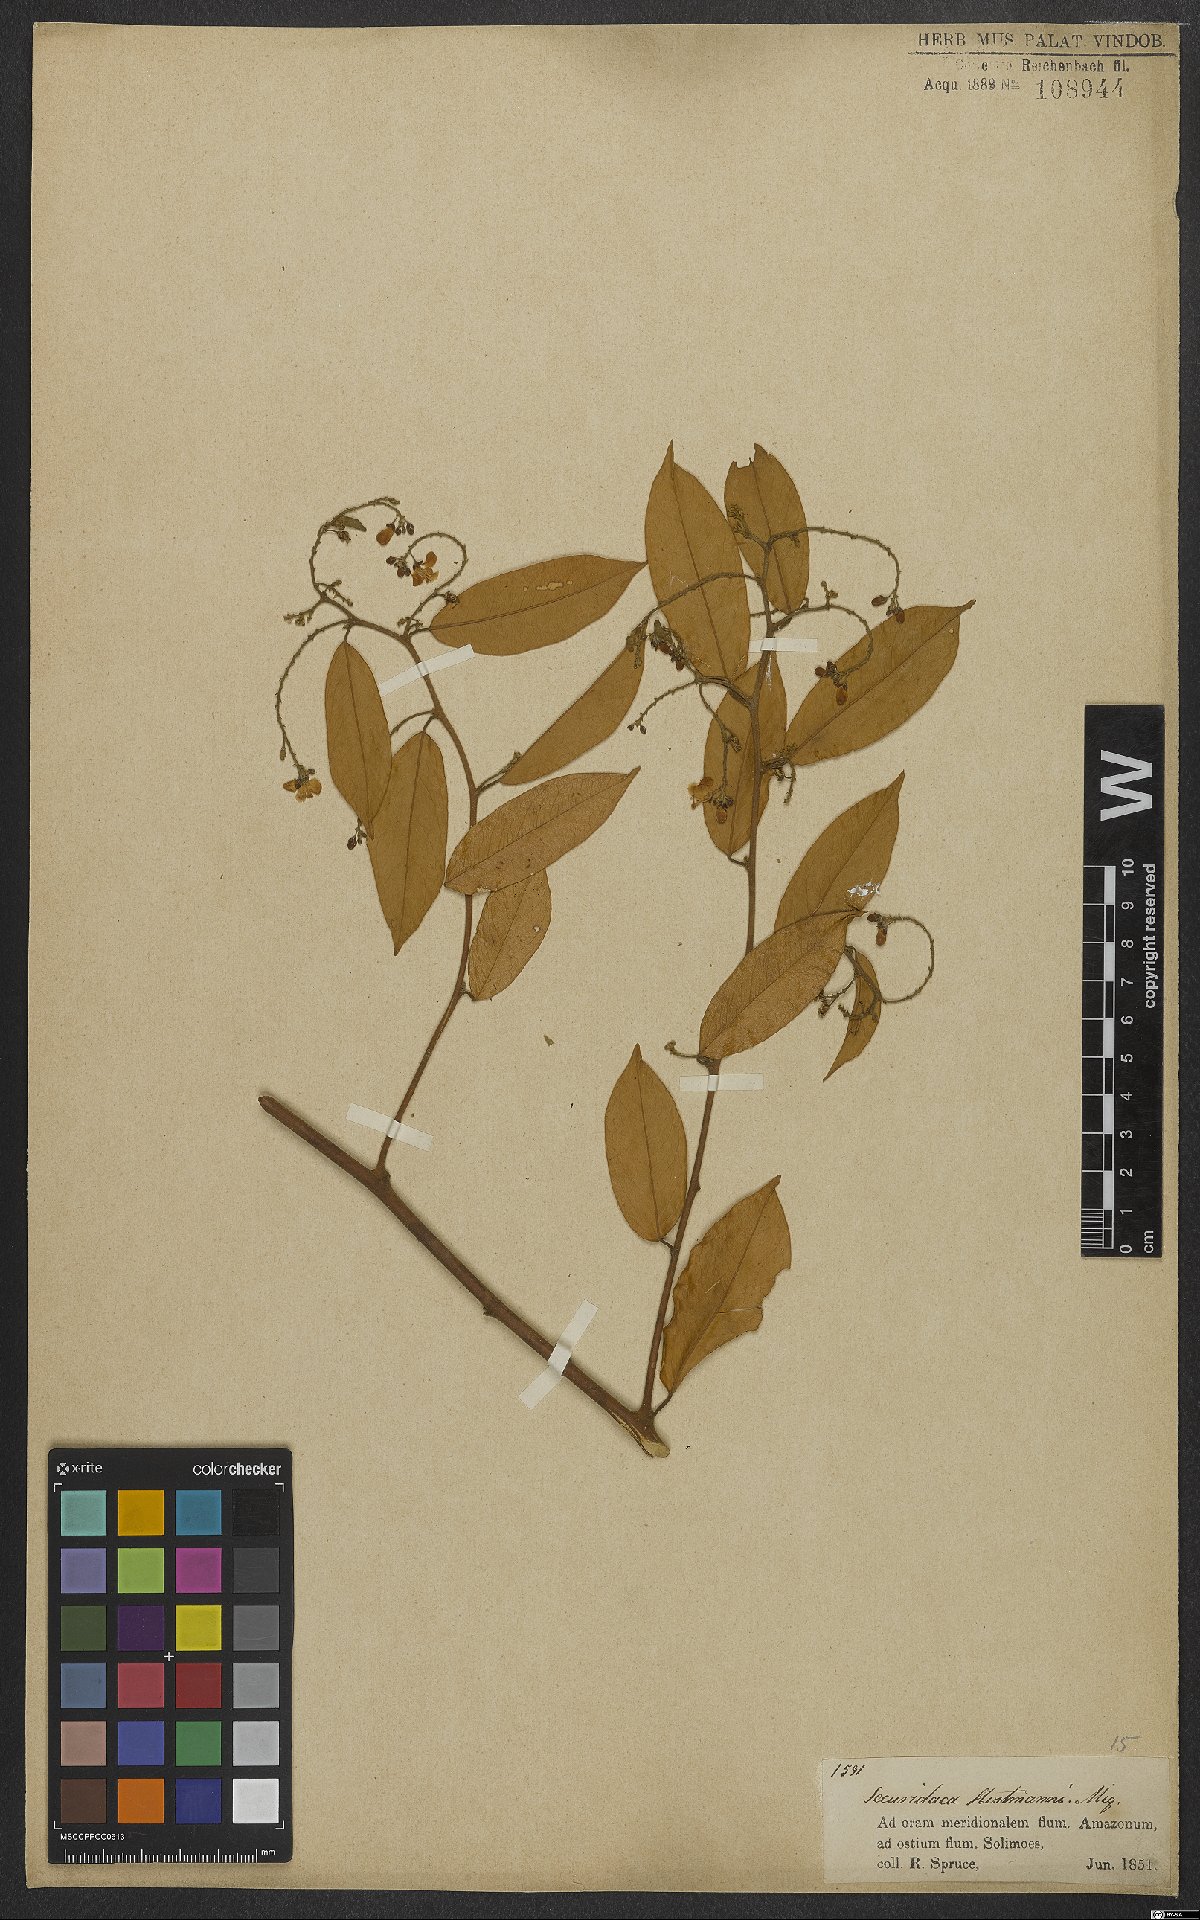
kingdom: Plantae
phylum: Tracheophyta
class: Magnoliopsida
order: Fabales
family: Polygalaceae
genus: Securidaca
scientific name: Securidaca paniculata
